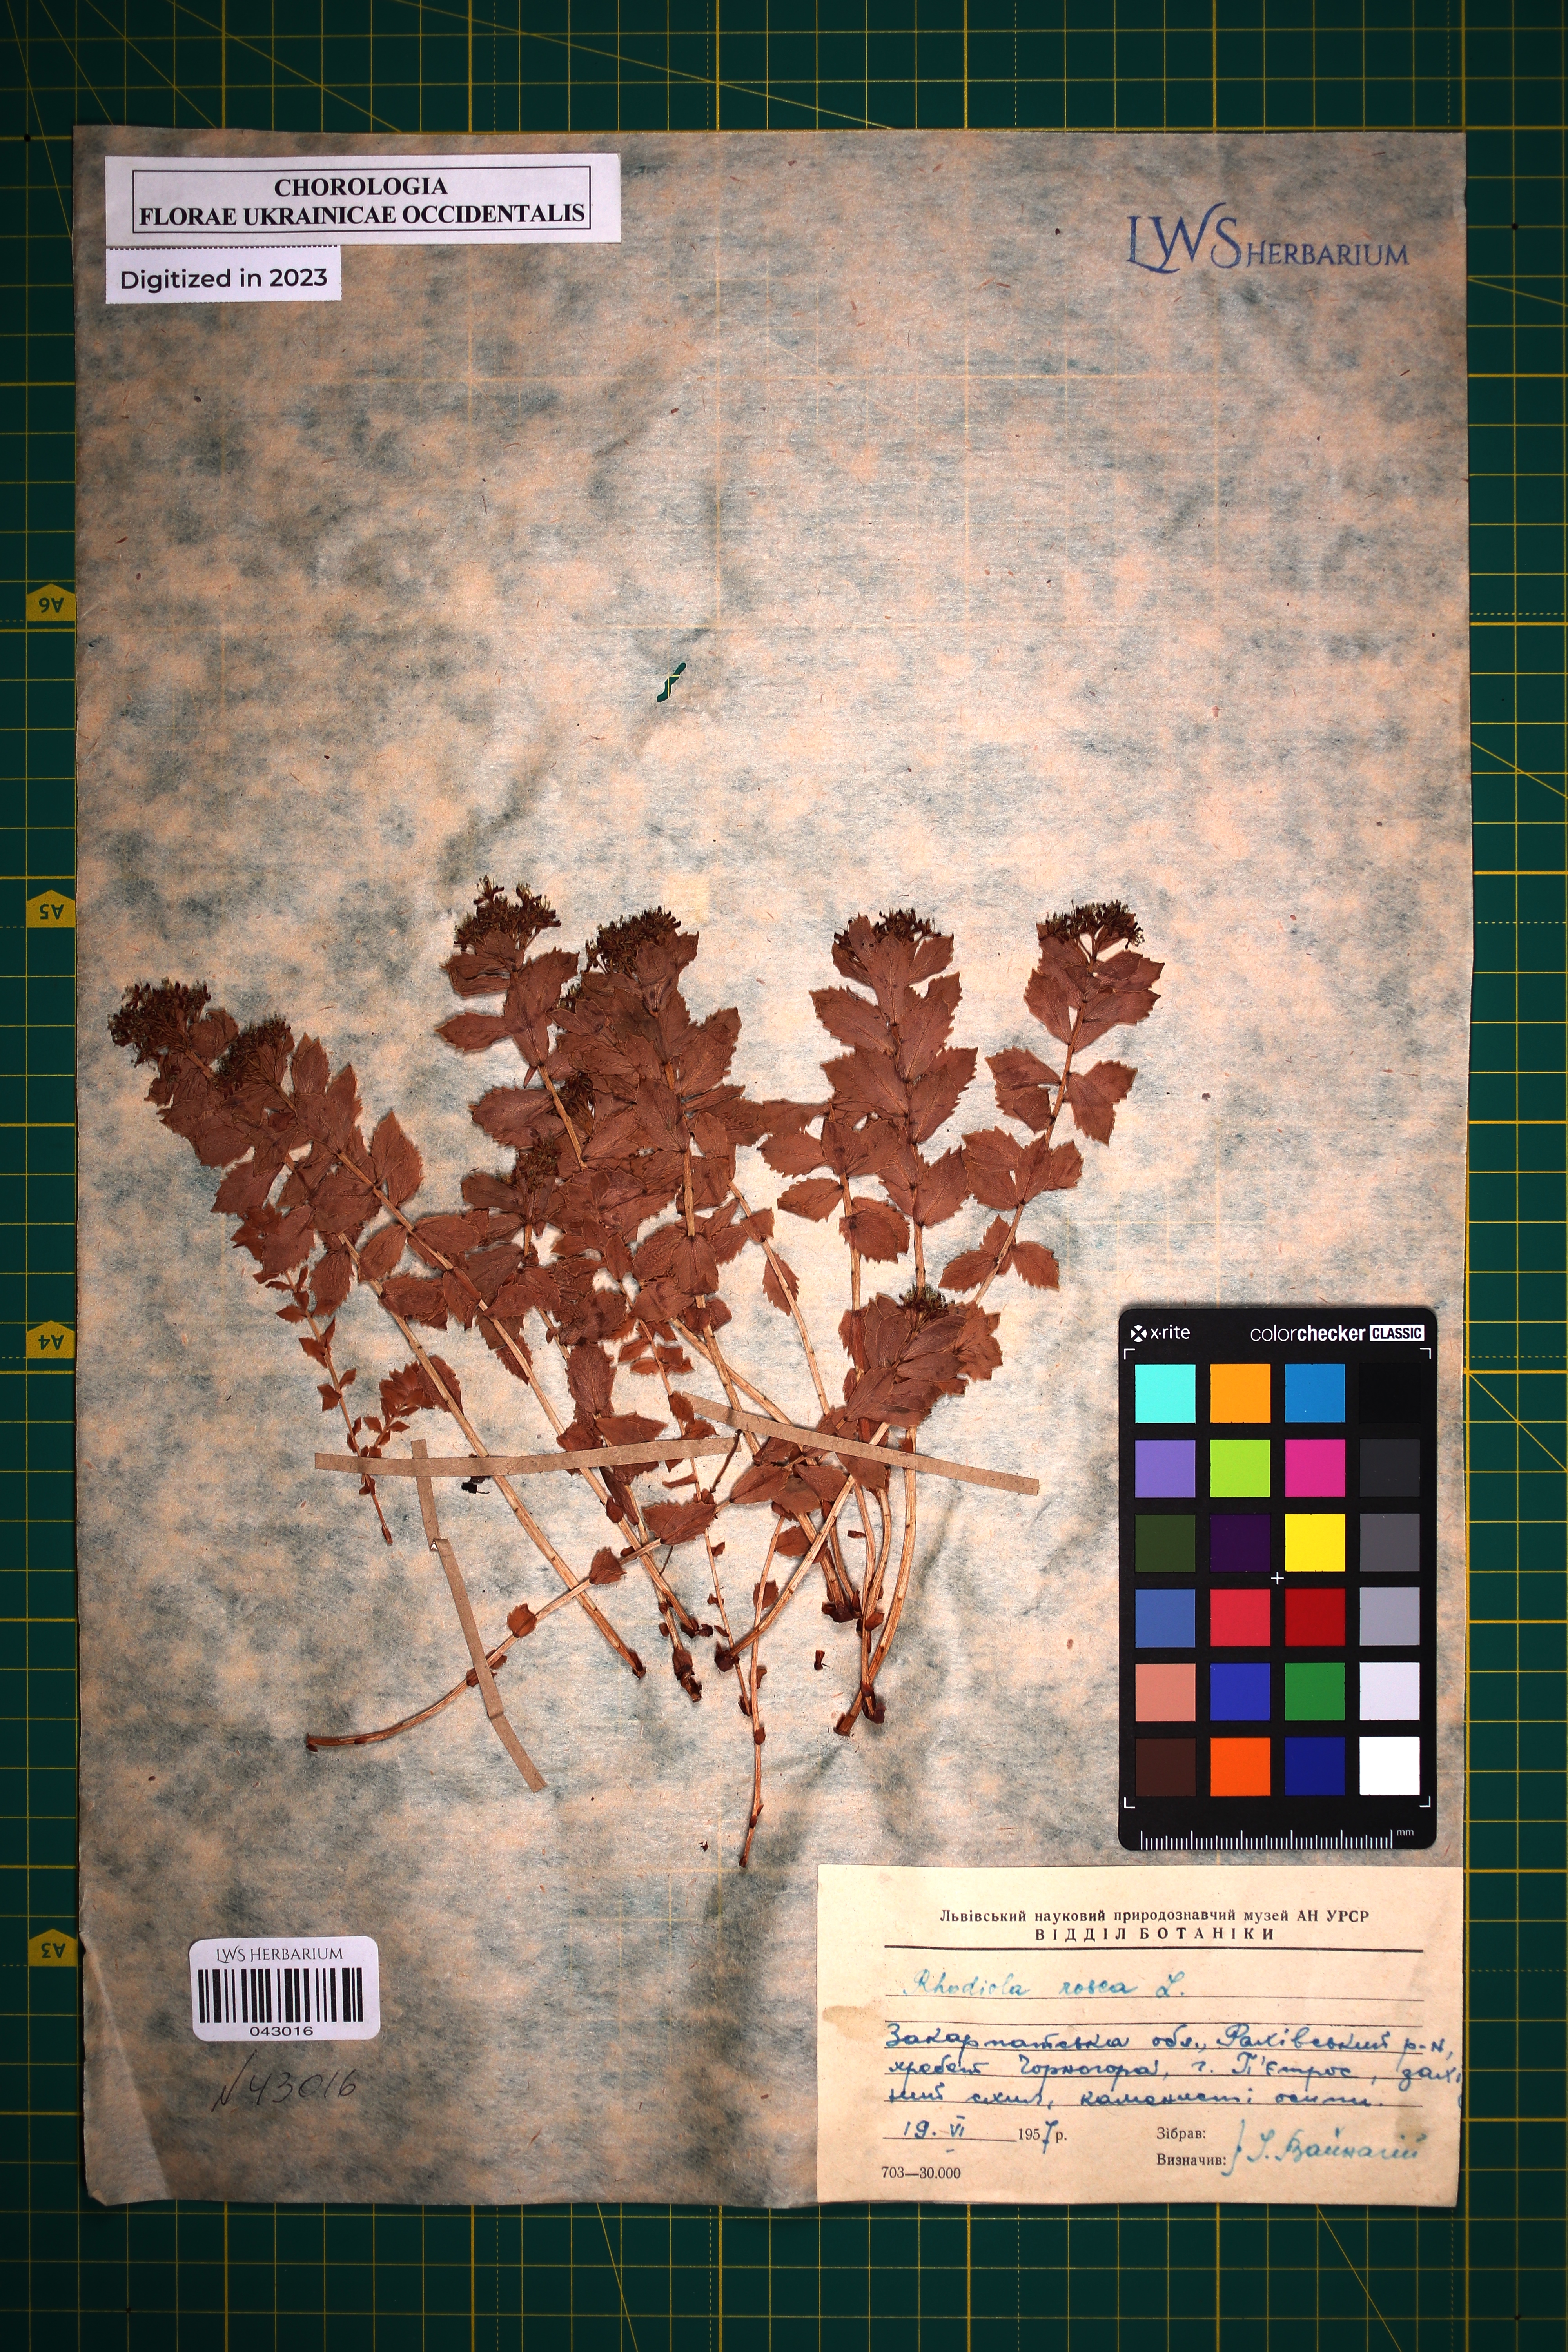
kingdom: Plantae
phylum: Tracheophyta
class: Magnoliopsida
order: Saxifragales
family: Crassulaceae
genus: Rhodiola
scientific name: Rhodiola rosea
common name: Roseroot
